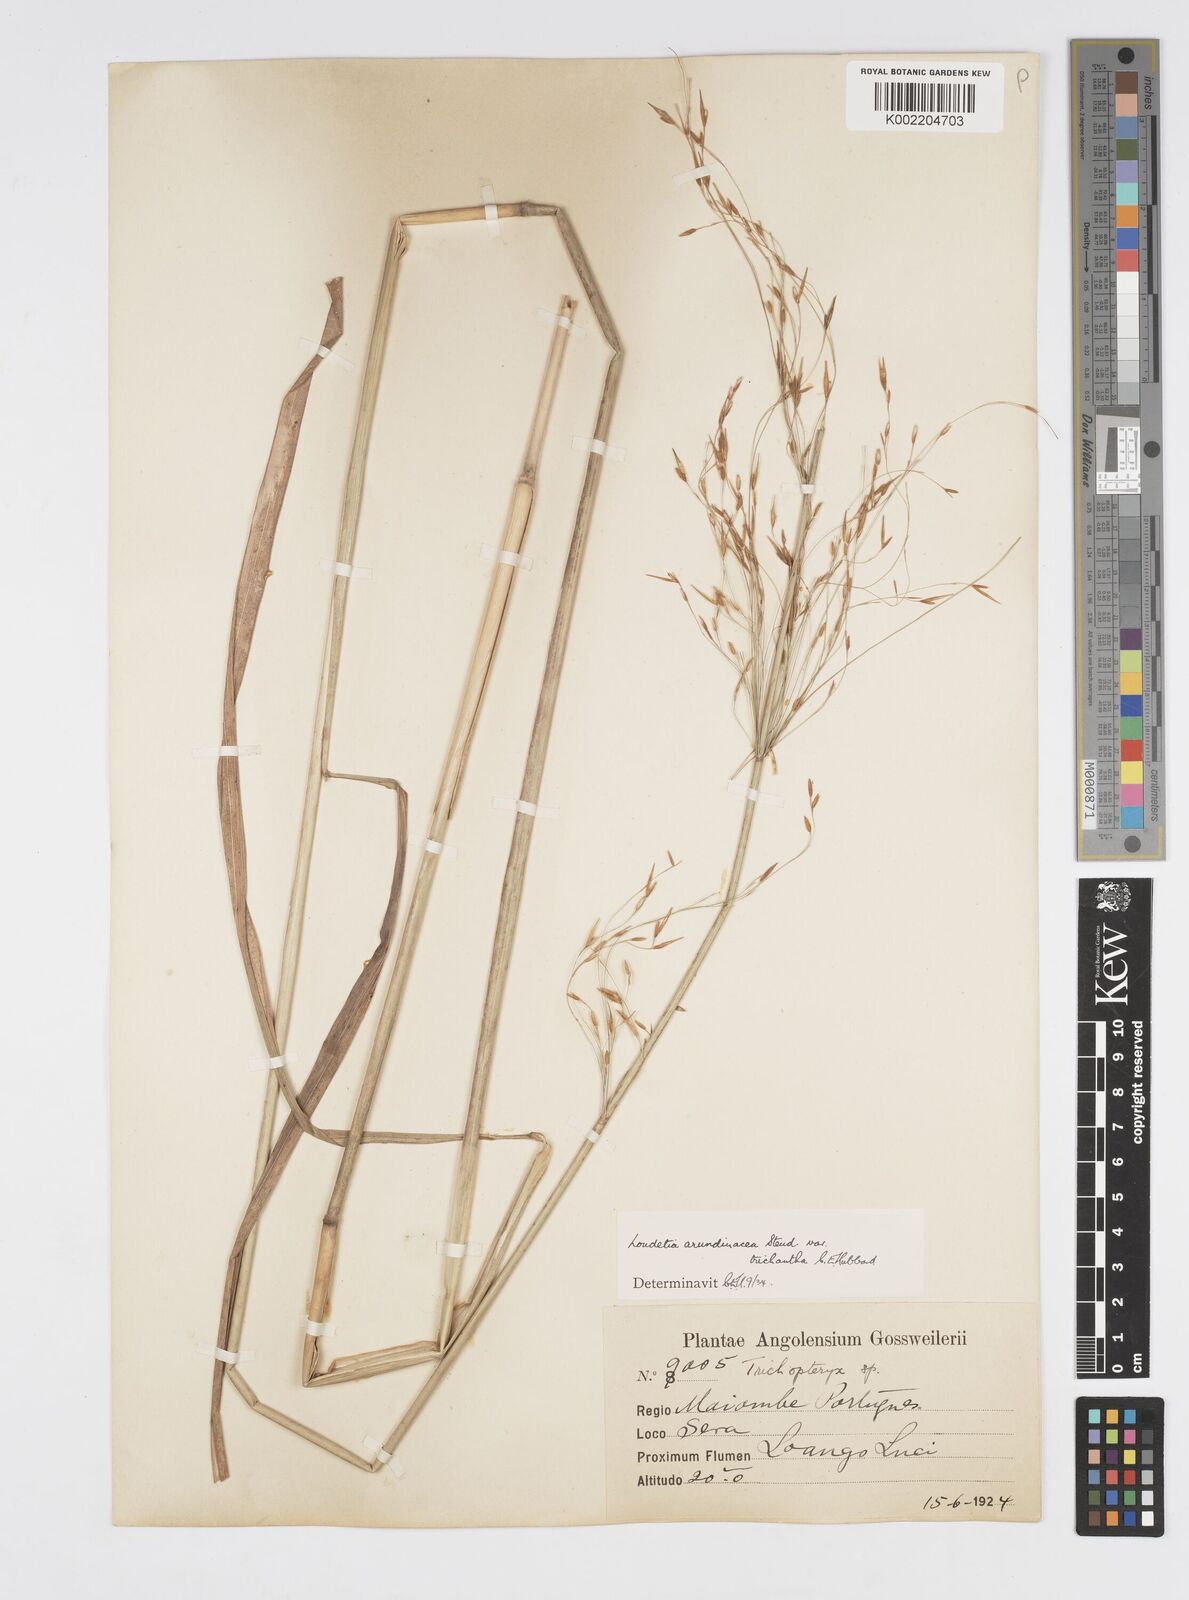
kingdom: Plantae
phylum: Tracheophyta
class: Liliopsida
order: Poales
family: Poaceae
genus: Loudetia
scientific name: Loudetia arundinacea
